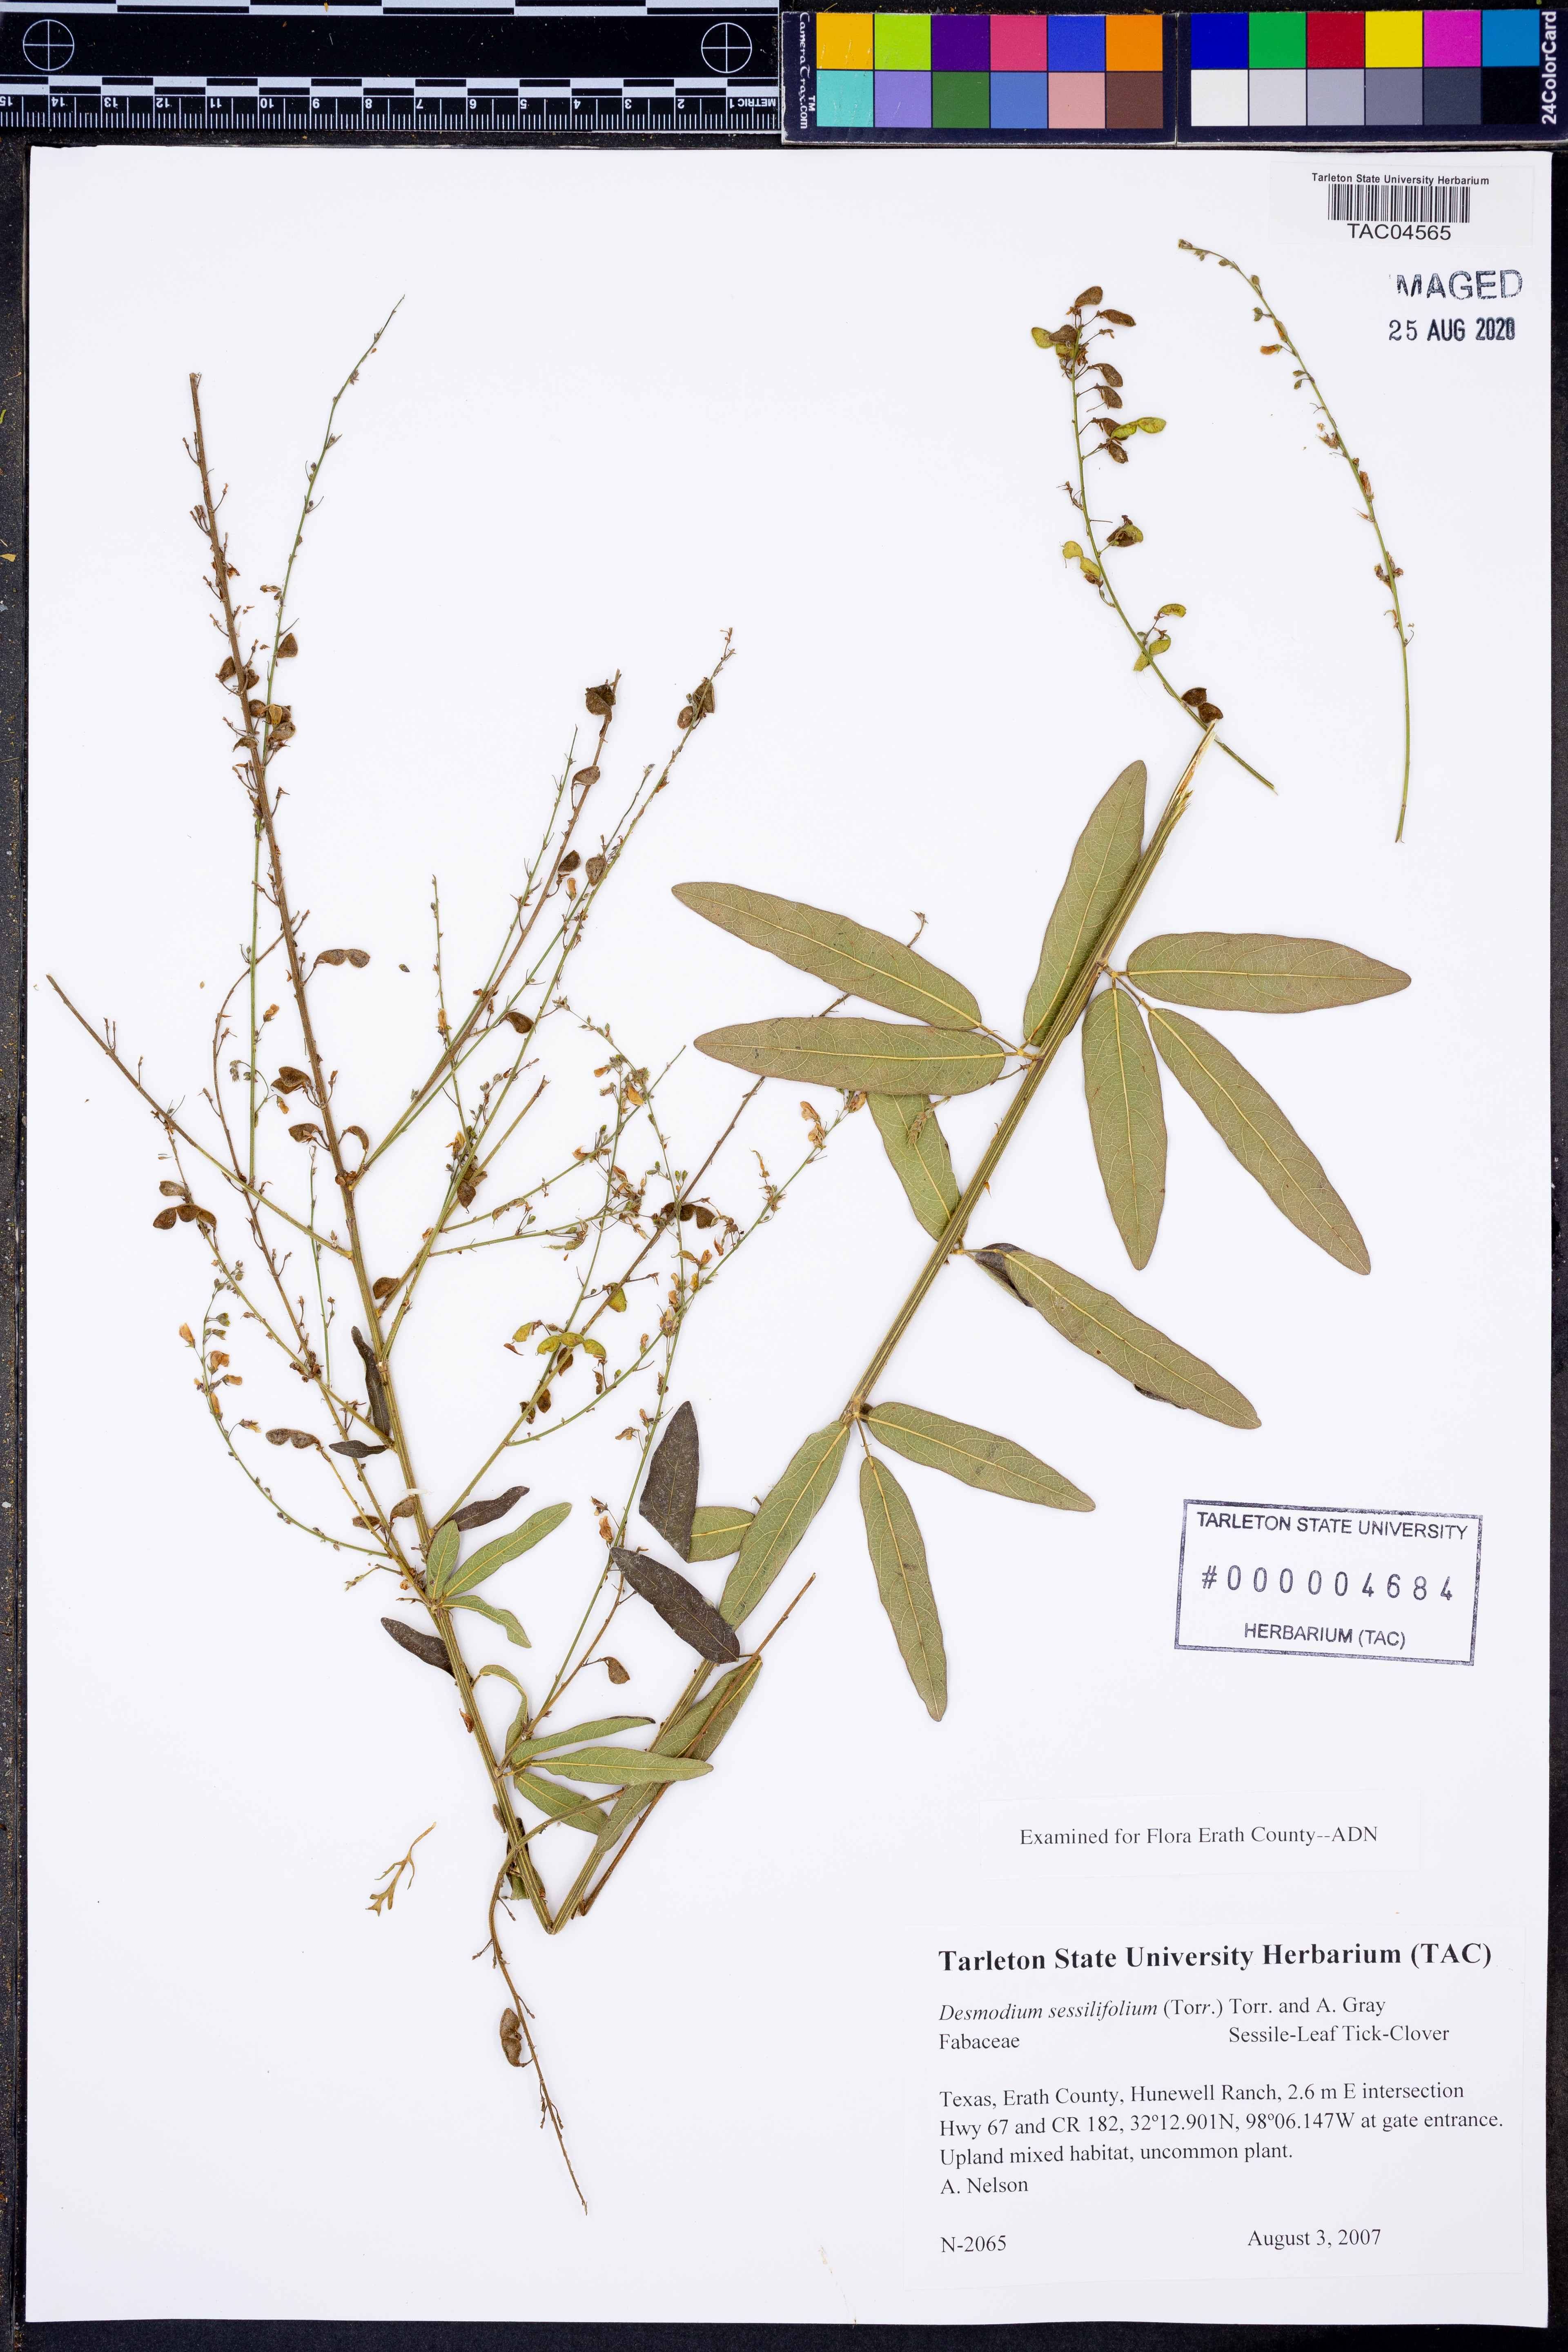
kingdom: Plantae
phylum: Tracheophyta
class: Magnoliopsida
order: Fabales
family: Fabaceae
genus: Desmodium
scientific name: Desmodium sessilifolium
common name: Sessile tick-clover
